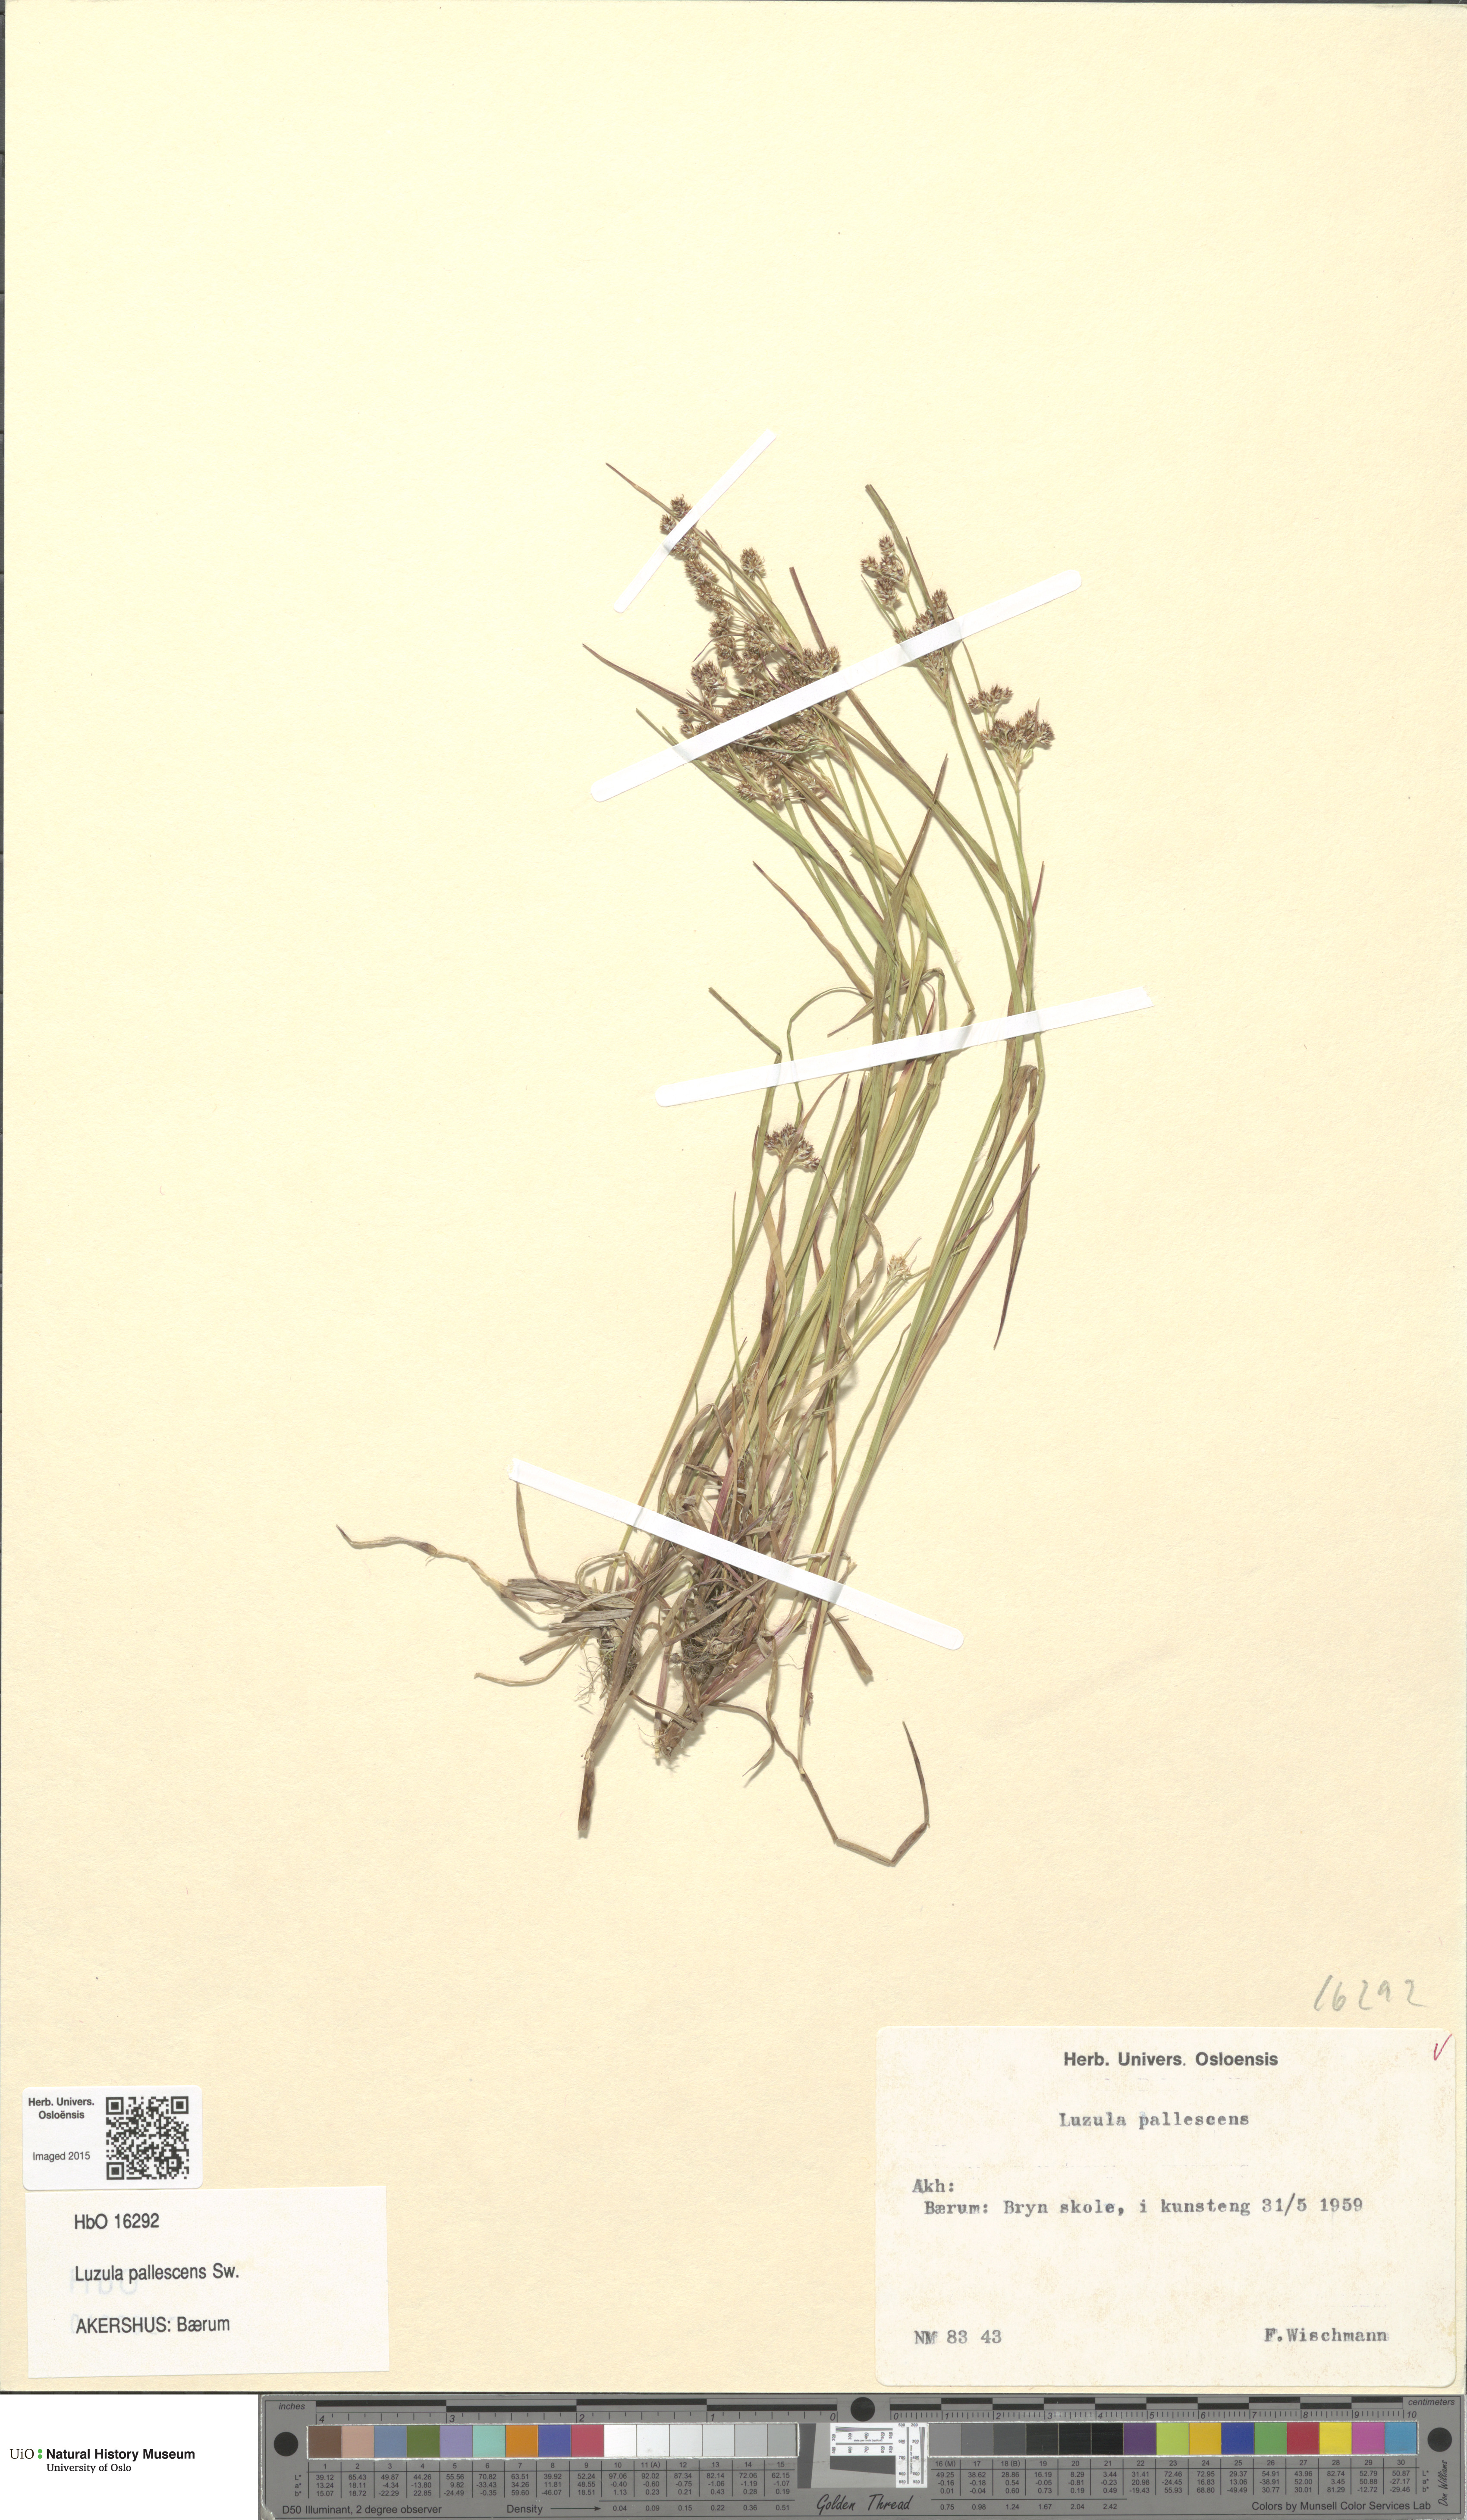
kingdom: Plantae
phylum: Tracheophyta
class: Liliopsida
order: Poales
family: Juncaceae
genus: Luzula
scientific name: Luzula pallescens
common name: Fen wood-rush
